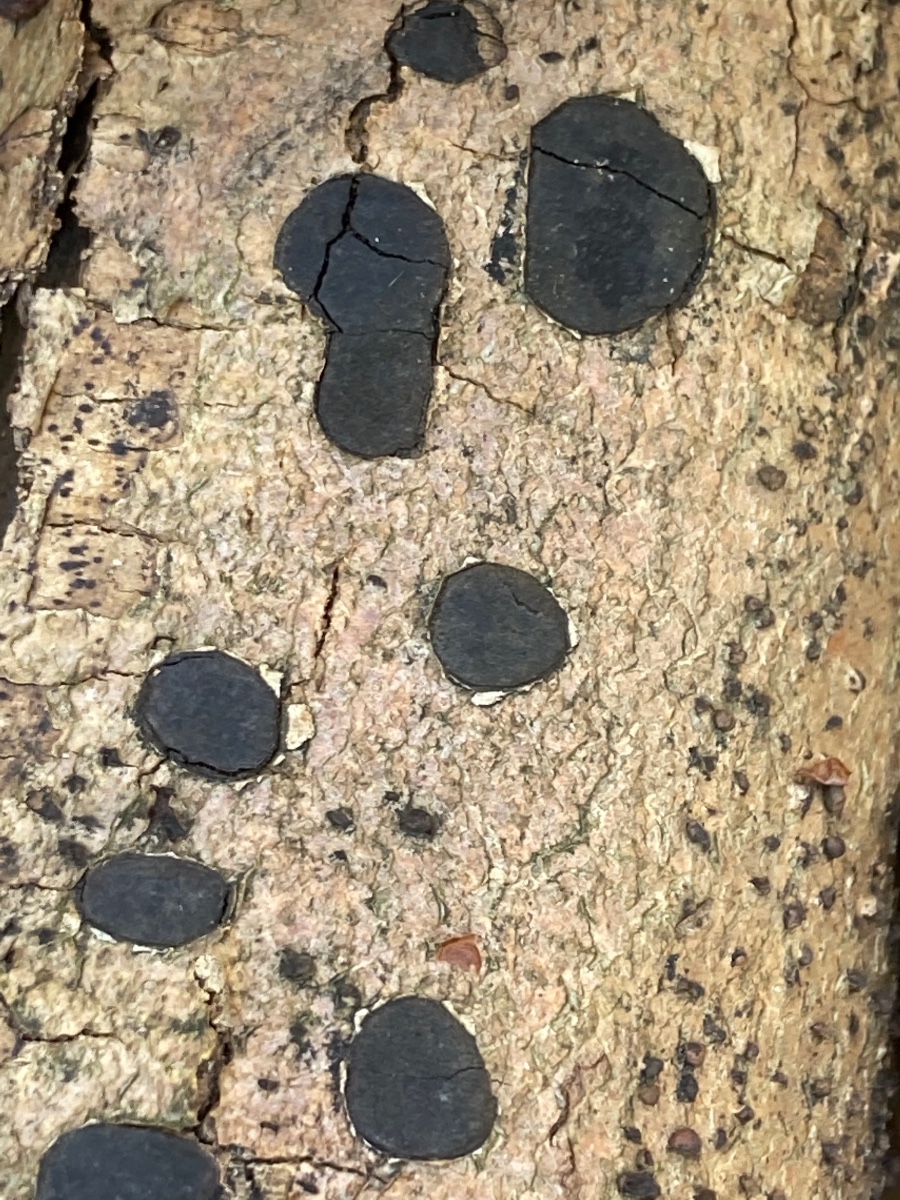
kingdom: Fungi
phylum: Ascomycota
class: Sordariomycetes
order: Xylariales
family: Graphostromataceae
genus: Biscogniauxia
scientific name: Biscogniauxia nummularia
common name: bøge-kulskive
